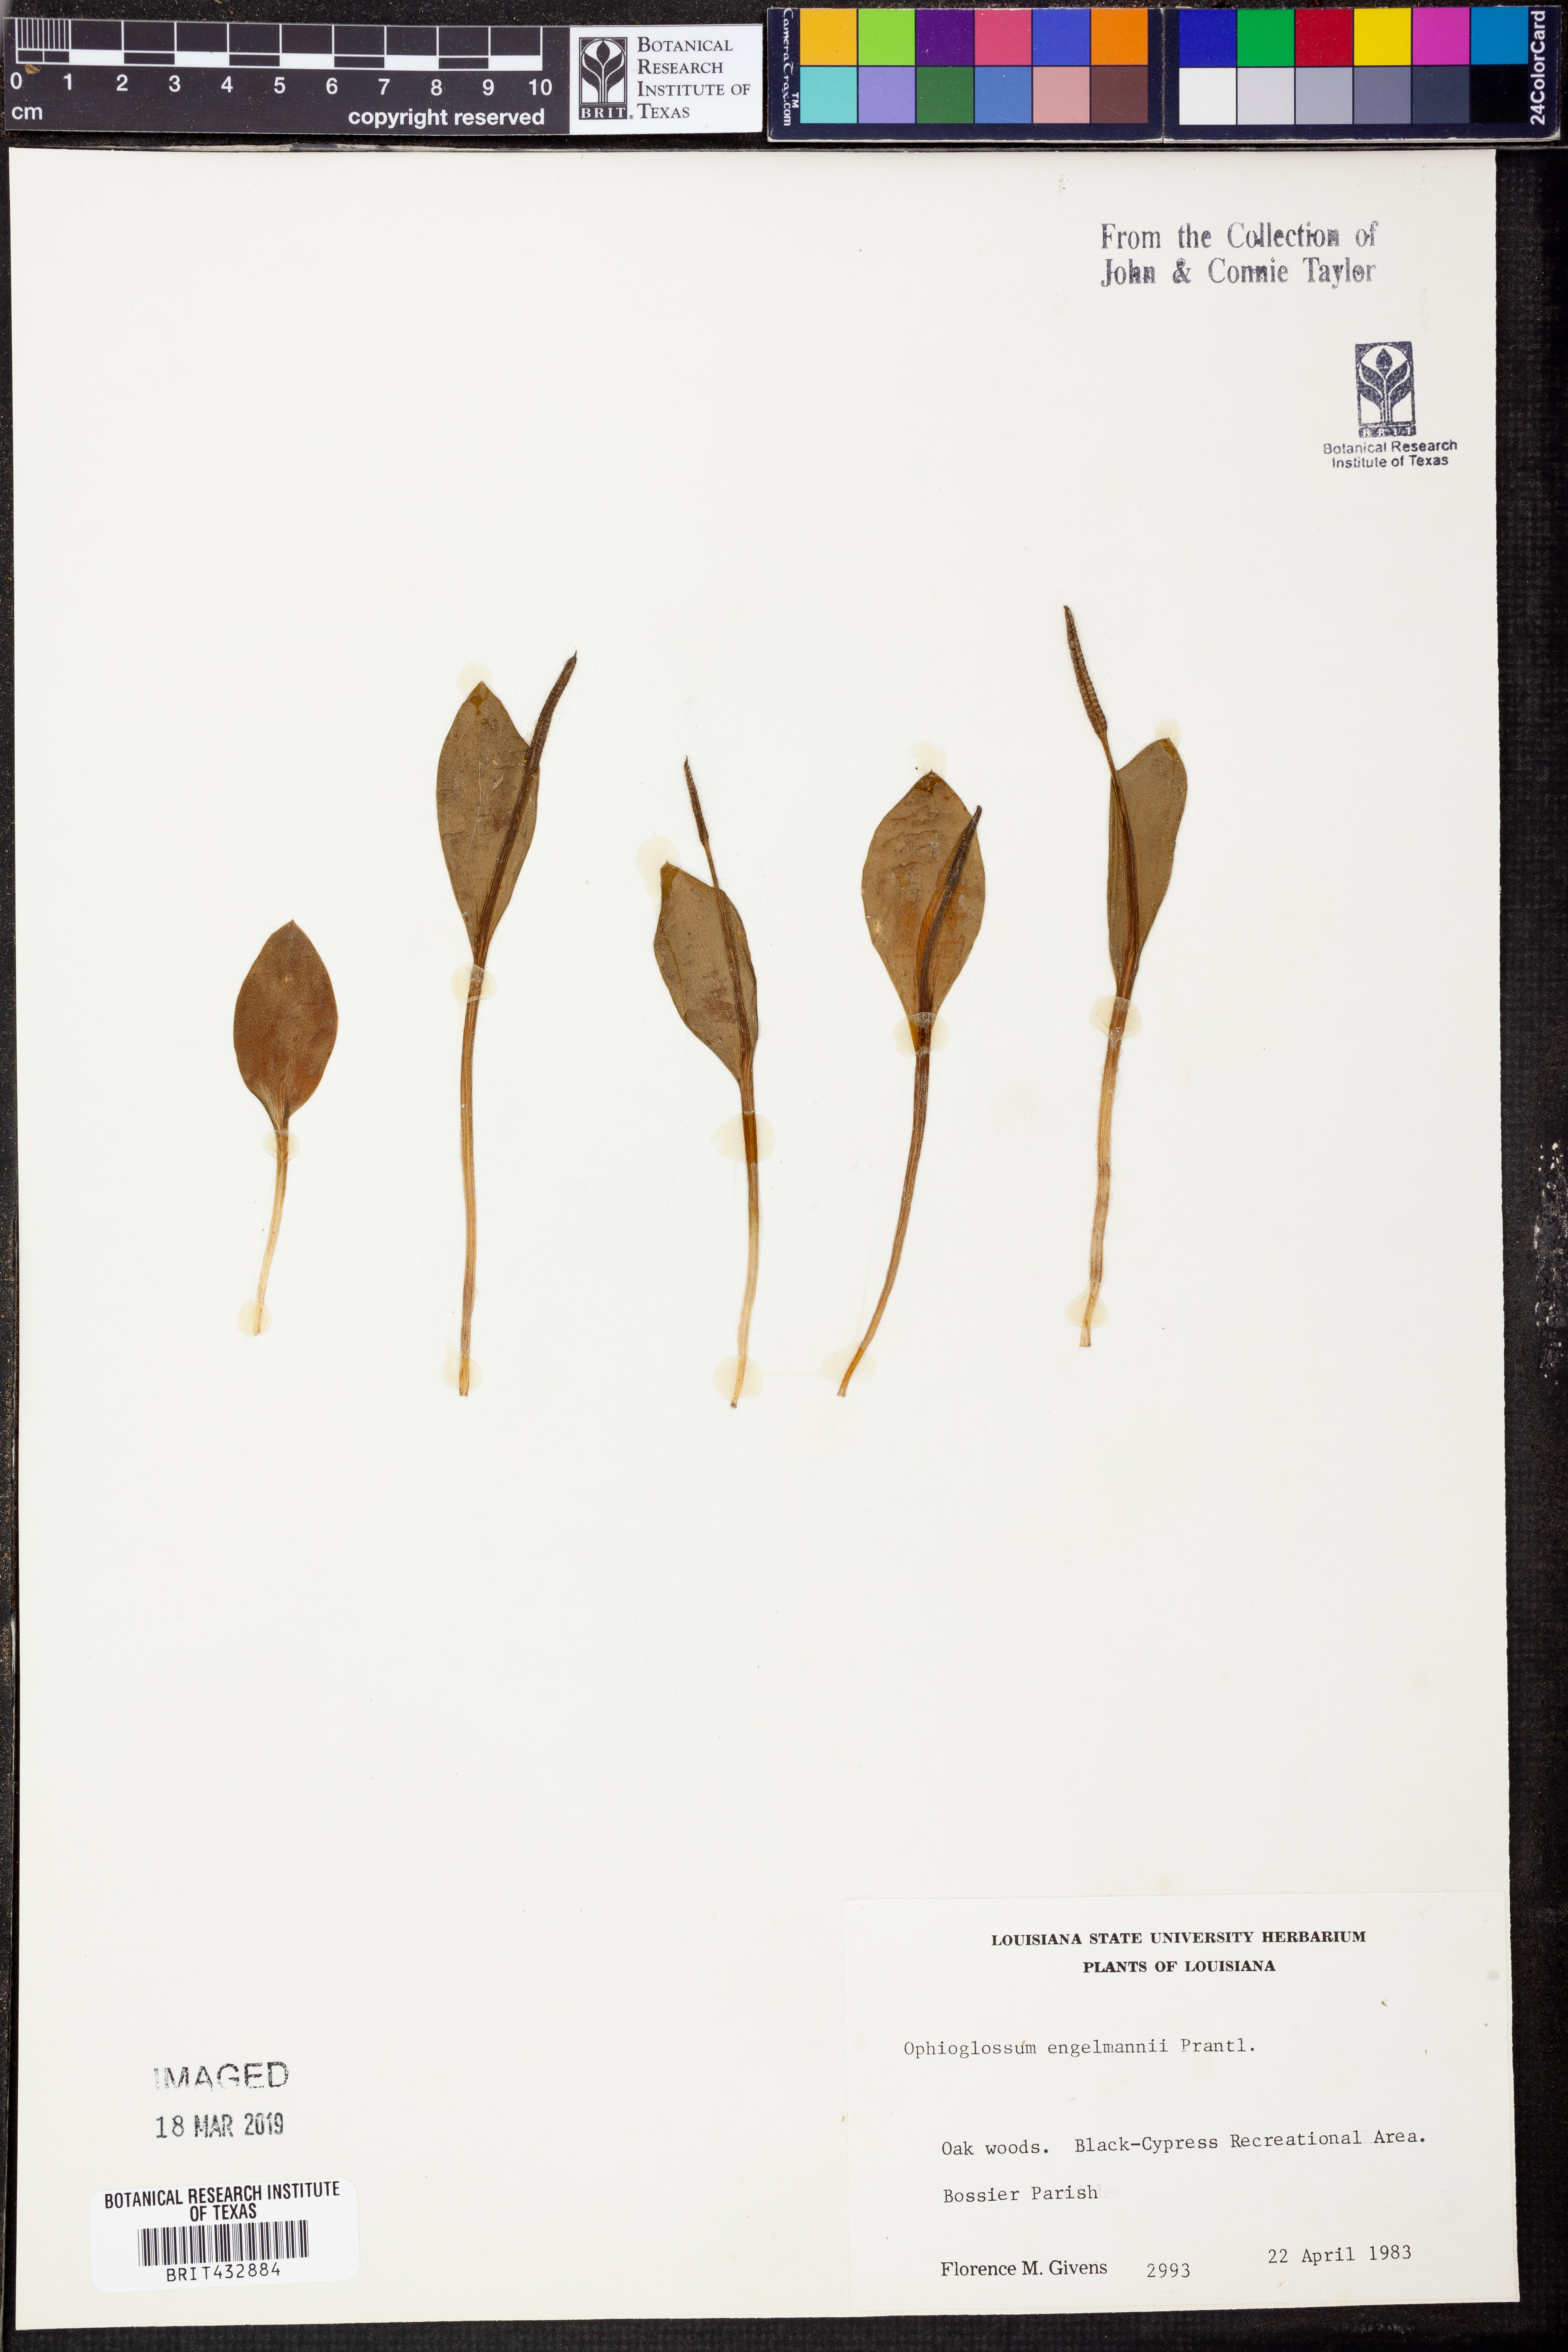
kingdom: Plantae
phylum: Tracheophyta
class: Polypodiopsida
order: Ophioglossales
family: Ophioglossaceae
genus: Ophioglossum
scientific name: Ophioglossum engelmannii
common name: Limestone adder's-tongue
